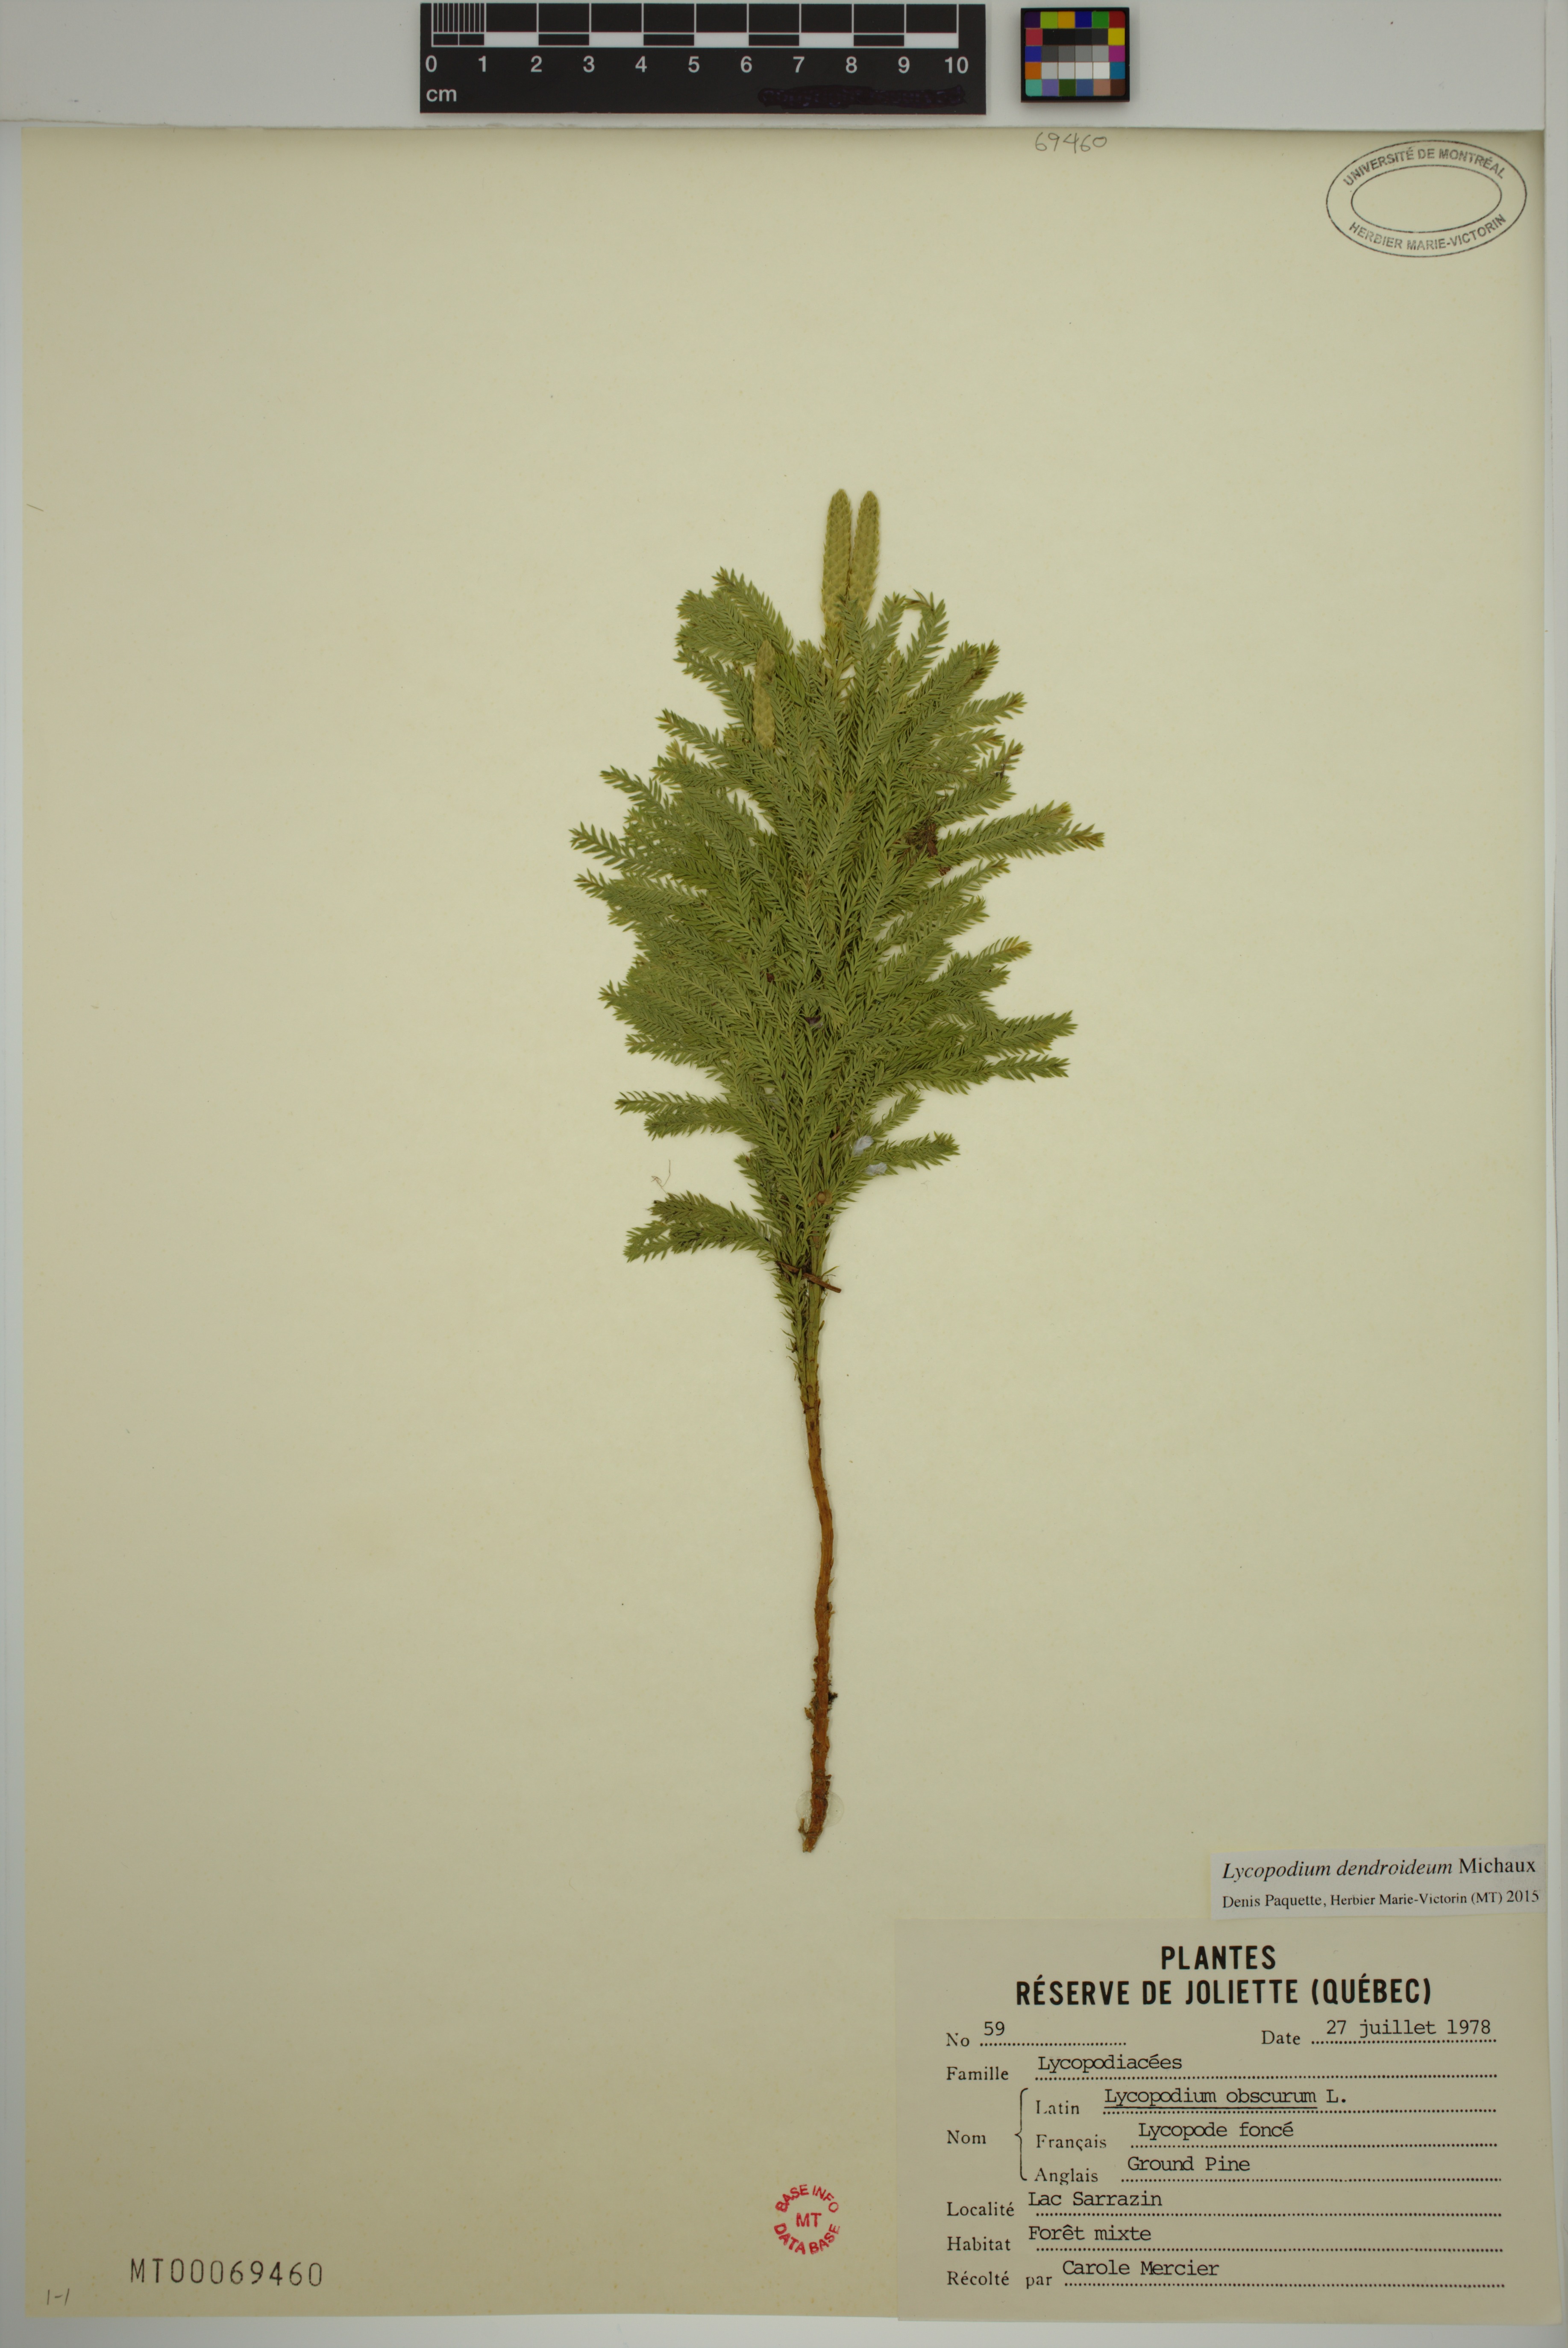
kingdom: Plantae
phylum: Tracheophyta
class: Lycopodiopsida
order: Lycopodiales
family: Lycopodiaceae
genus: Dendrolycopodium
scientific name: Dendrolycopodium dendroideum
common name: Northern tree-clubmoss
